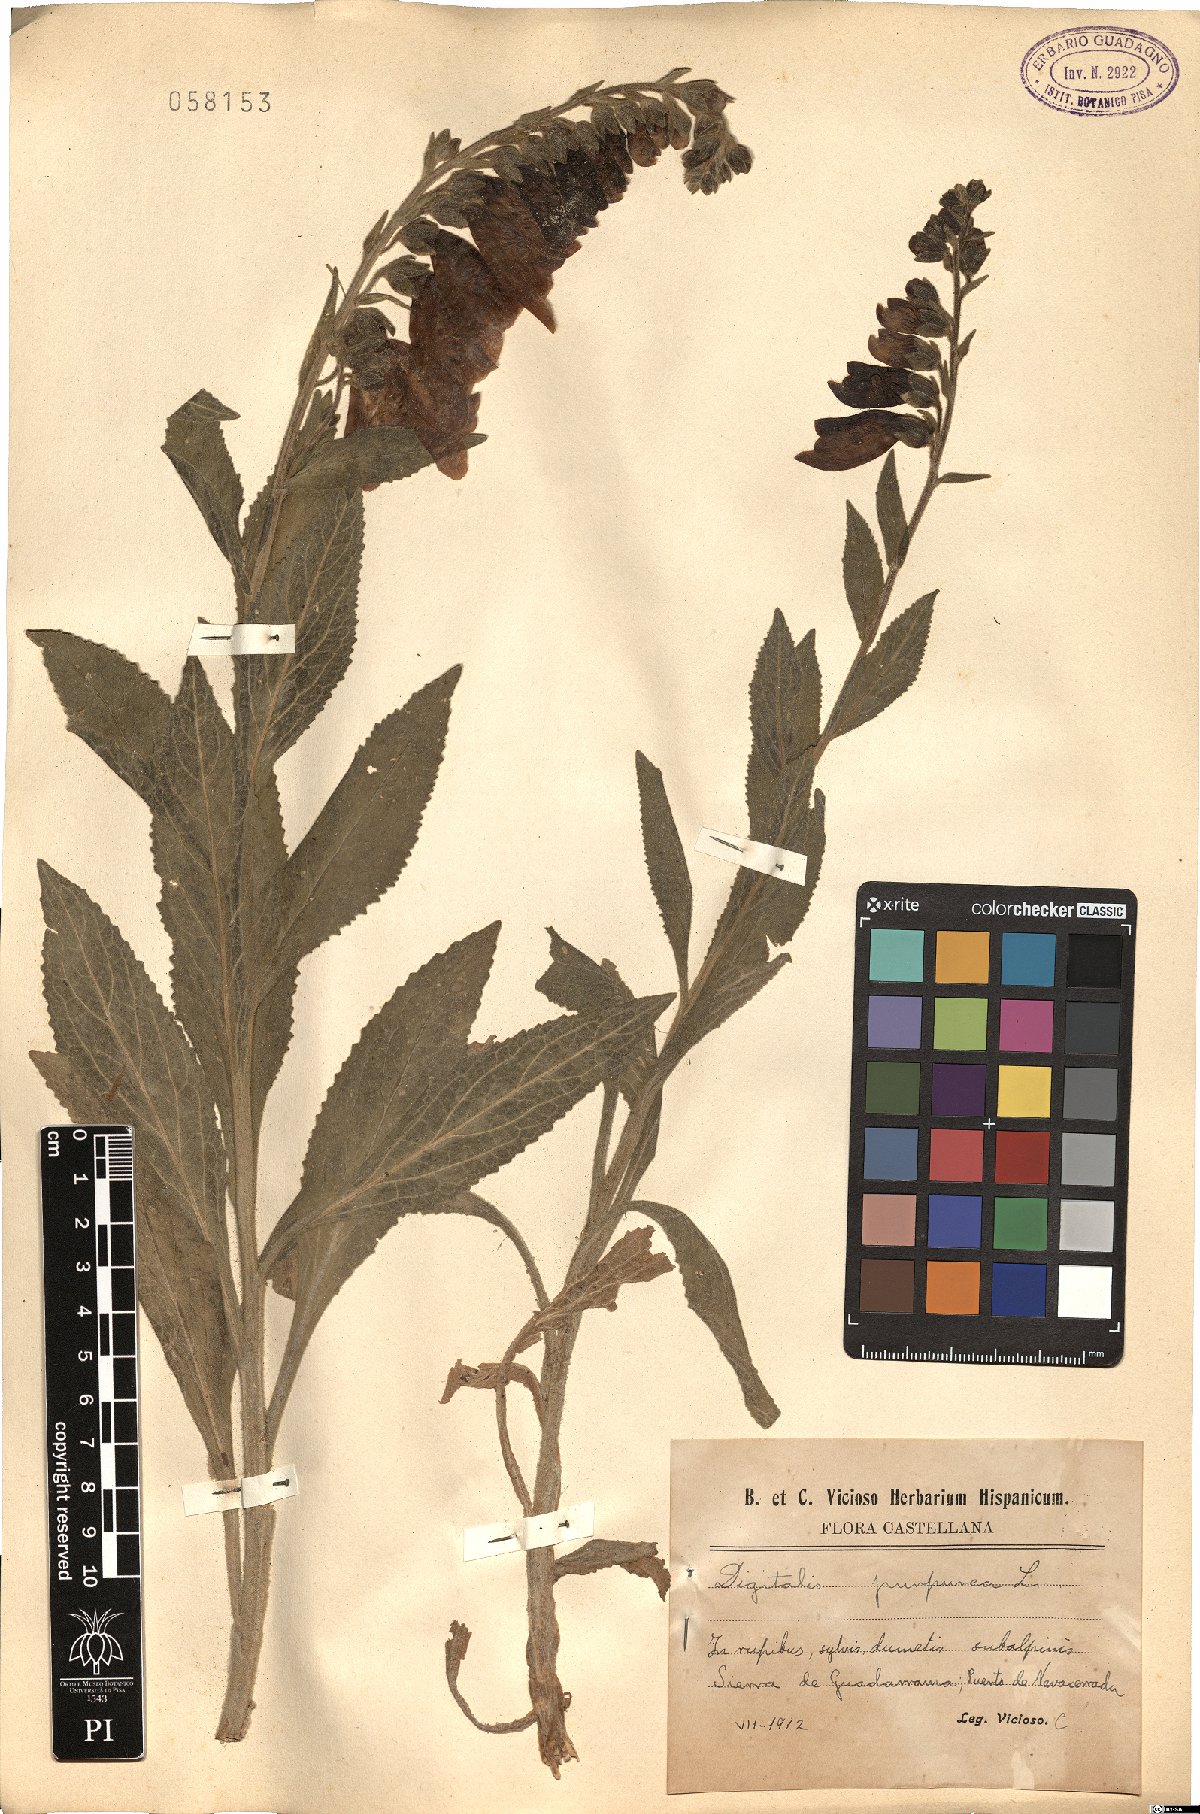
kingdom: Plantae
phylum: Tracheophyta
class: Magnoliopsida
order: Lamiales
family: Plantaginaceae
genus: Digitalis
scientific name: Digitalis purpurea
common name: Foxglove
